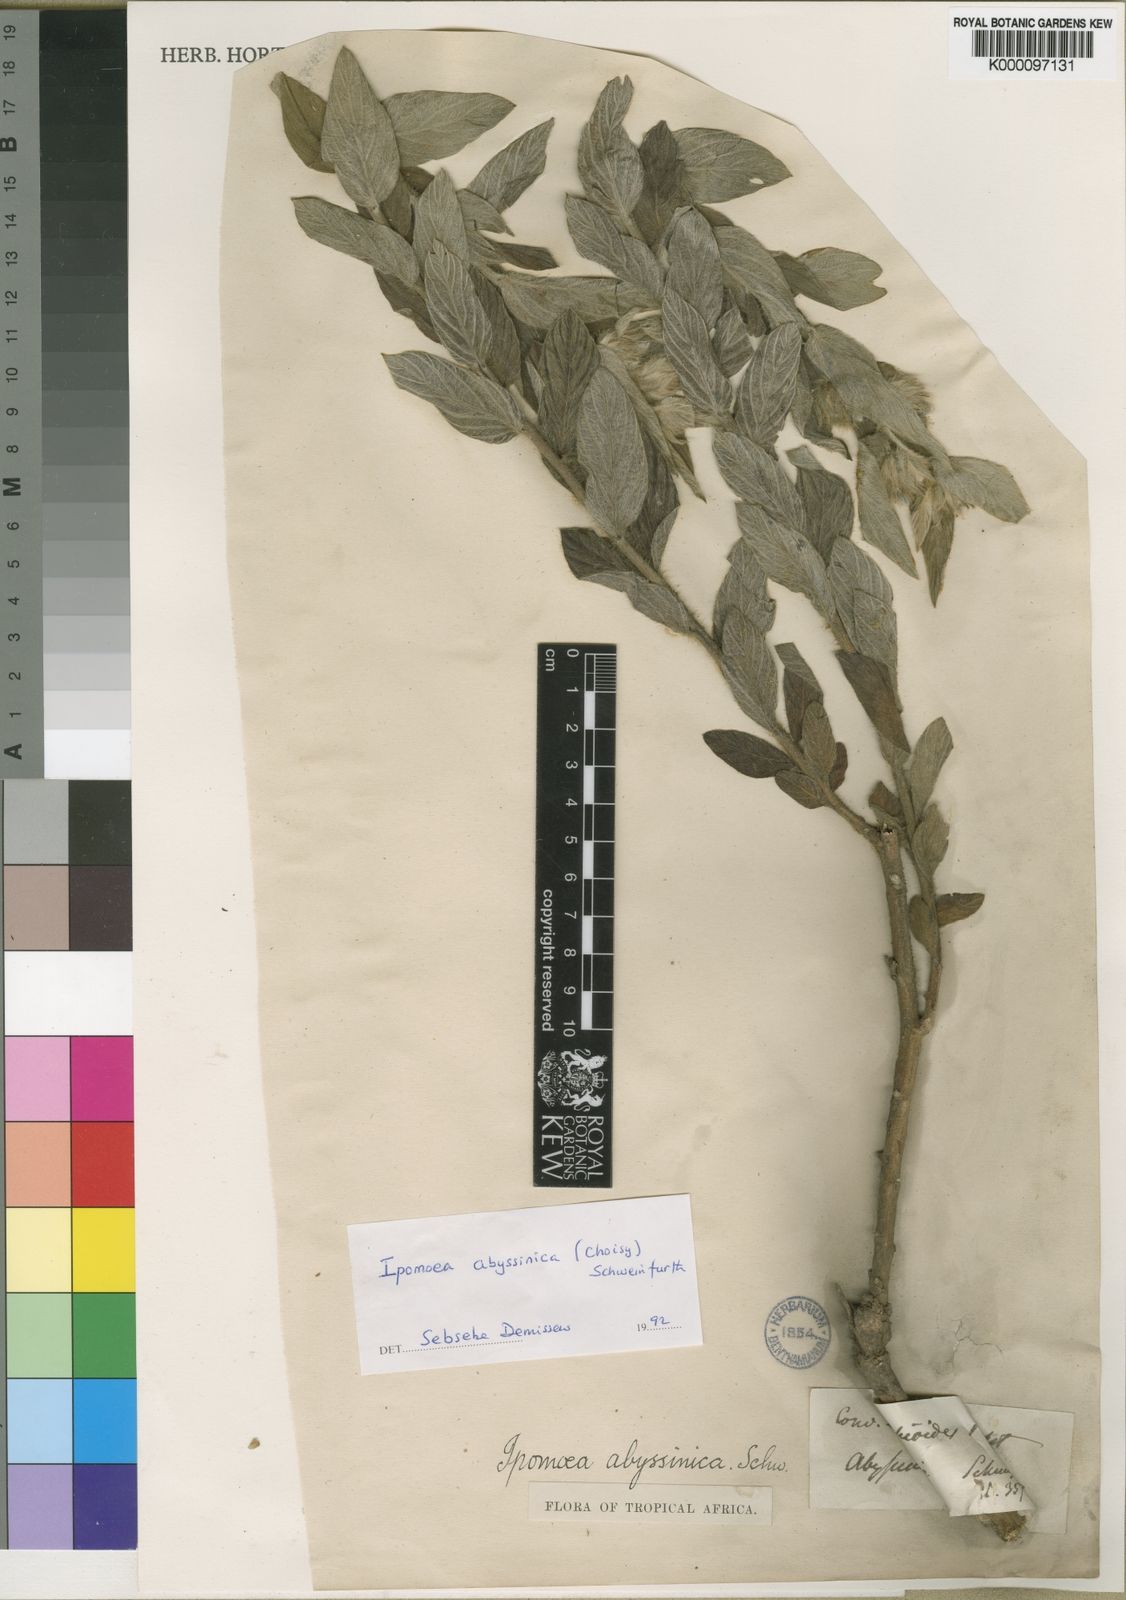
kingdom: Plantae
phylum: Tracheophyta
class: Magnoliopsida
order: Solanales
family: Convolvulaceae
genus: Ipomoea
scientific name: Ipomoea
